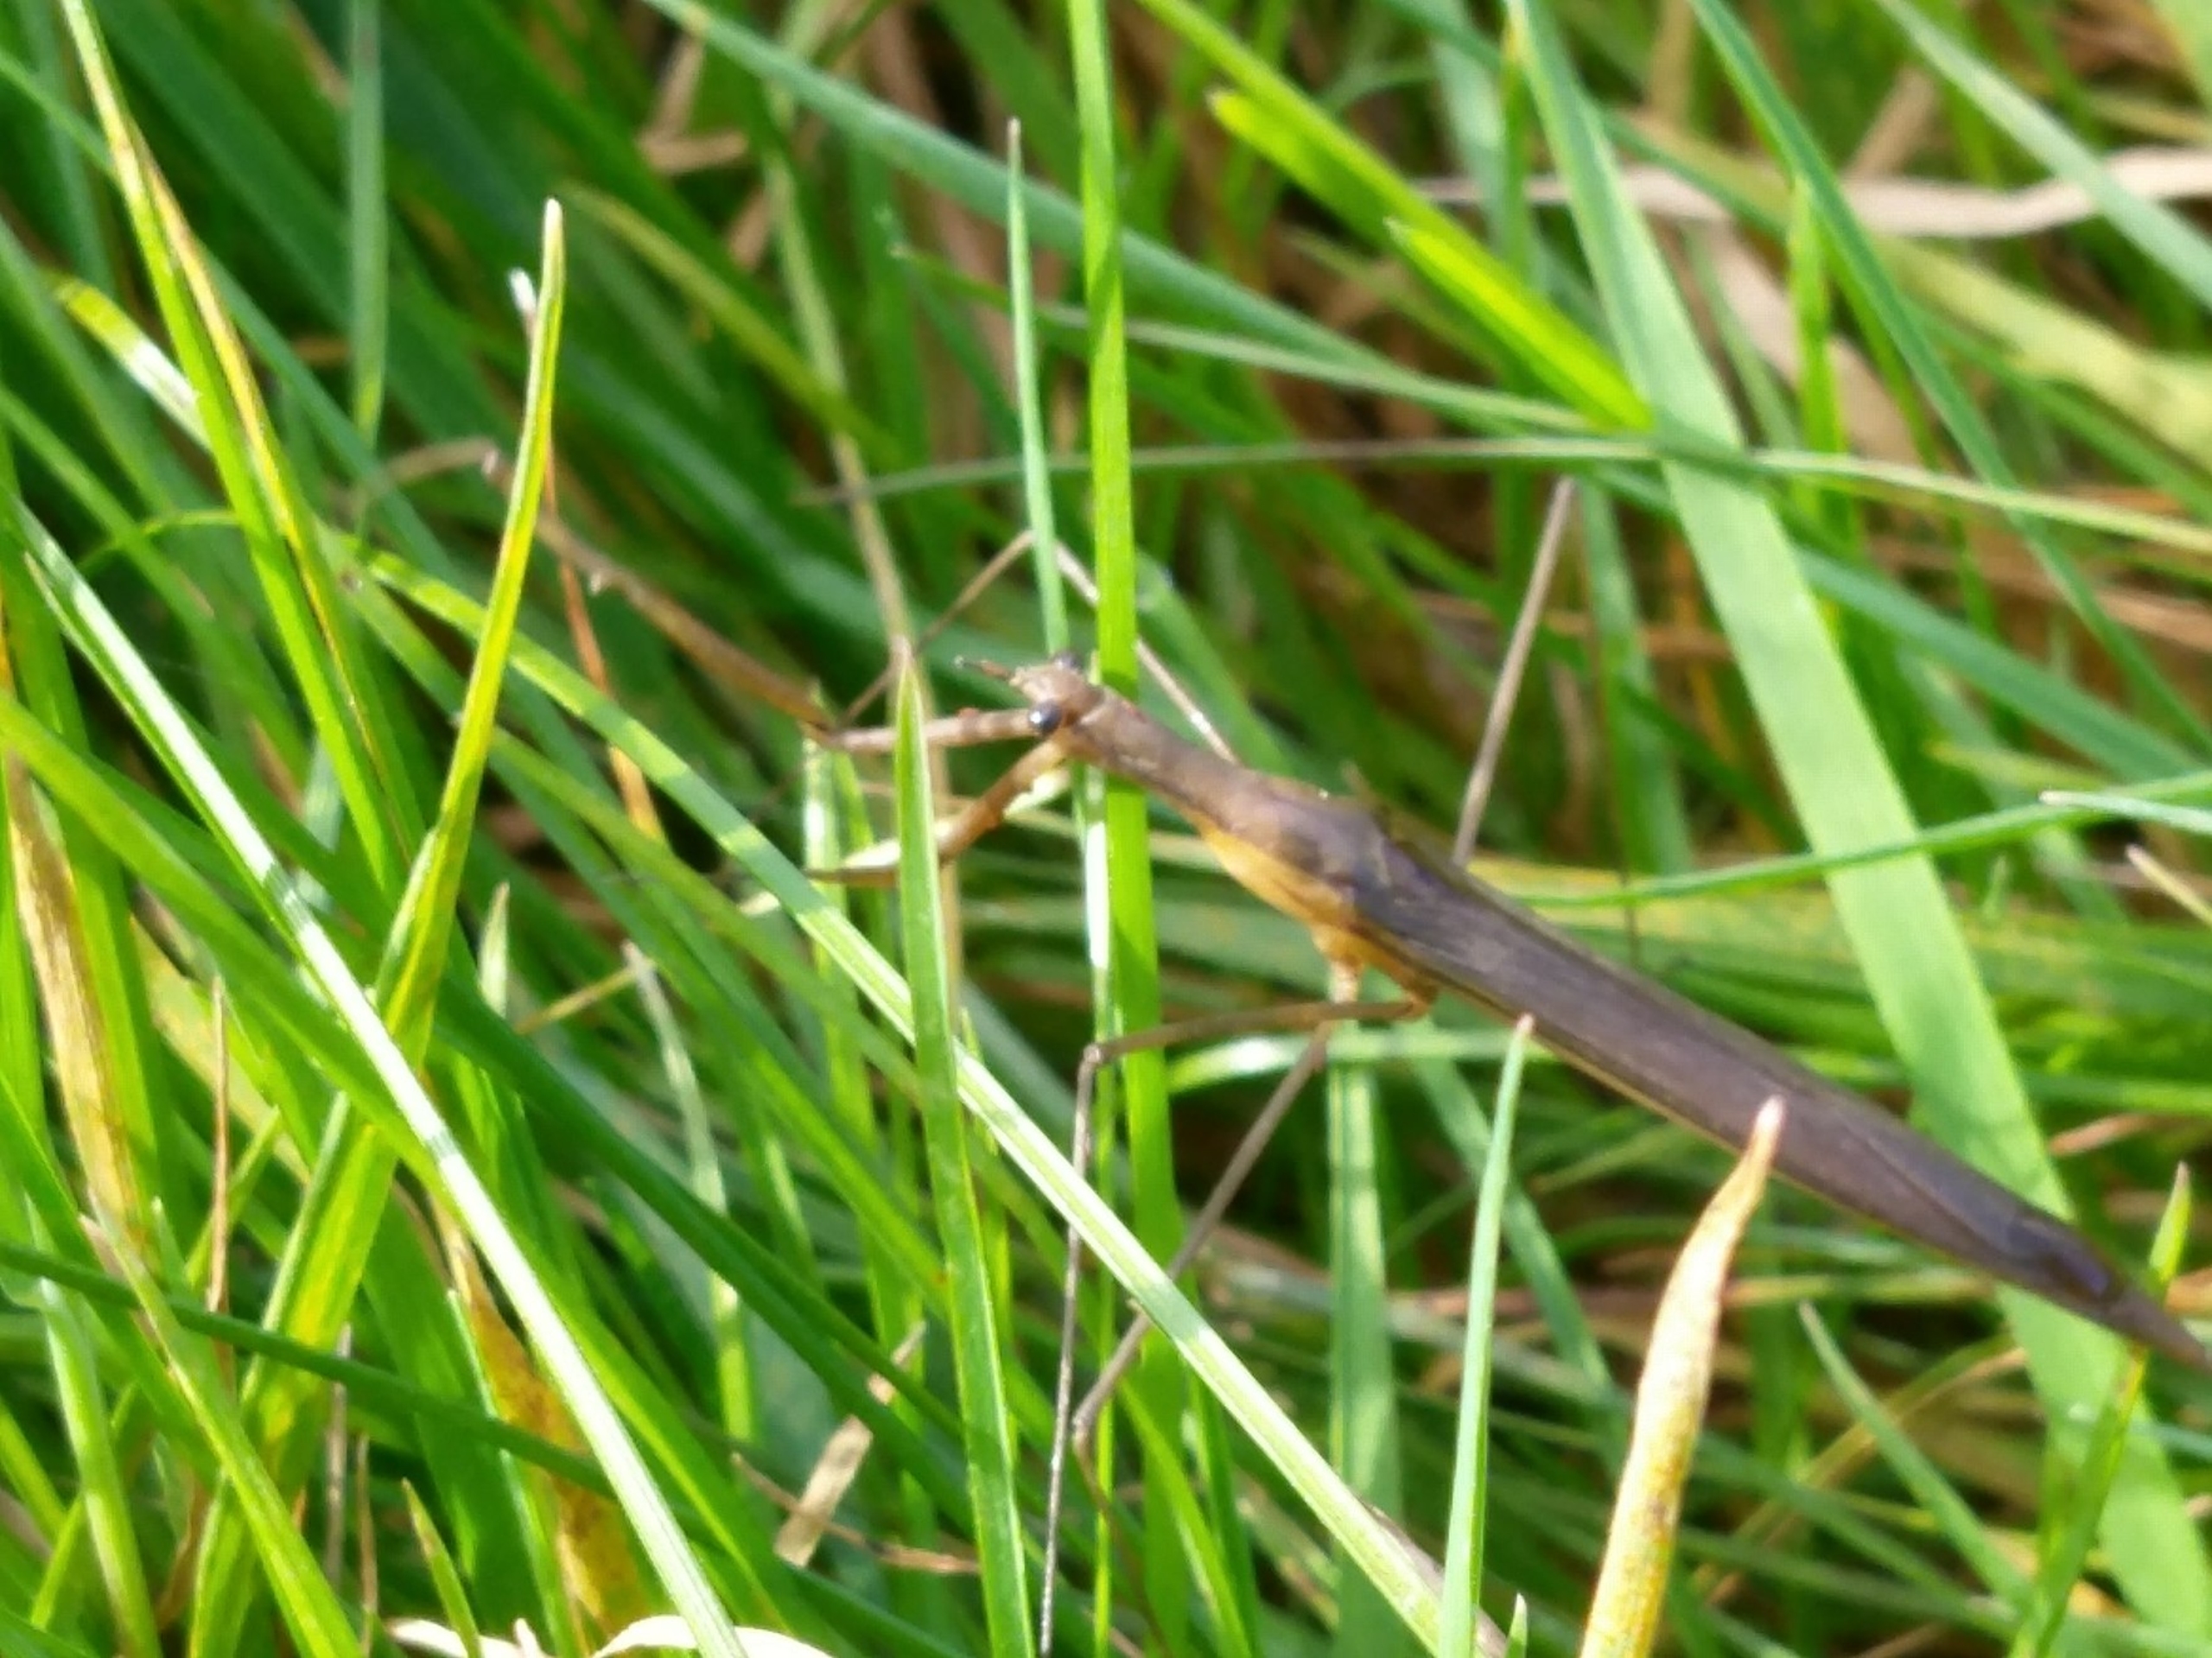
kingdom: Animalia
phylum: Arthropoda
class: Insecta
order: Hemiptera
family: Nepidae
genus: Ranatra
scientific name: Ranatra linearis
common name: Stavtæge
